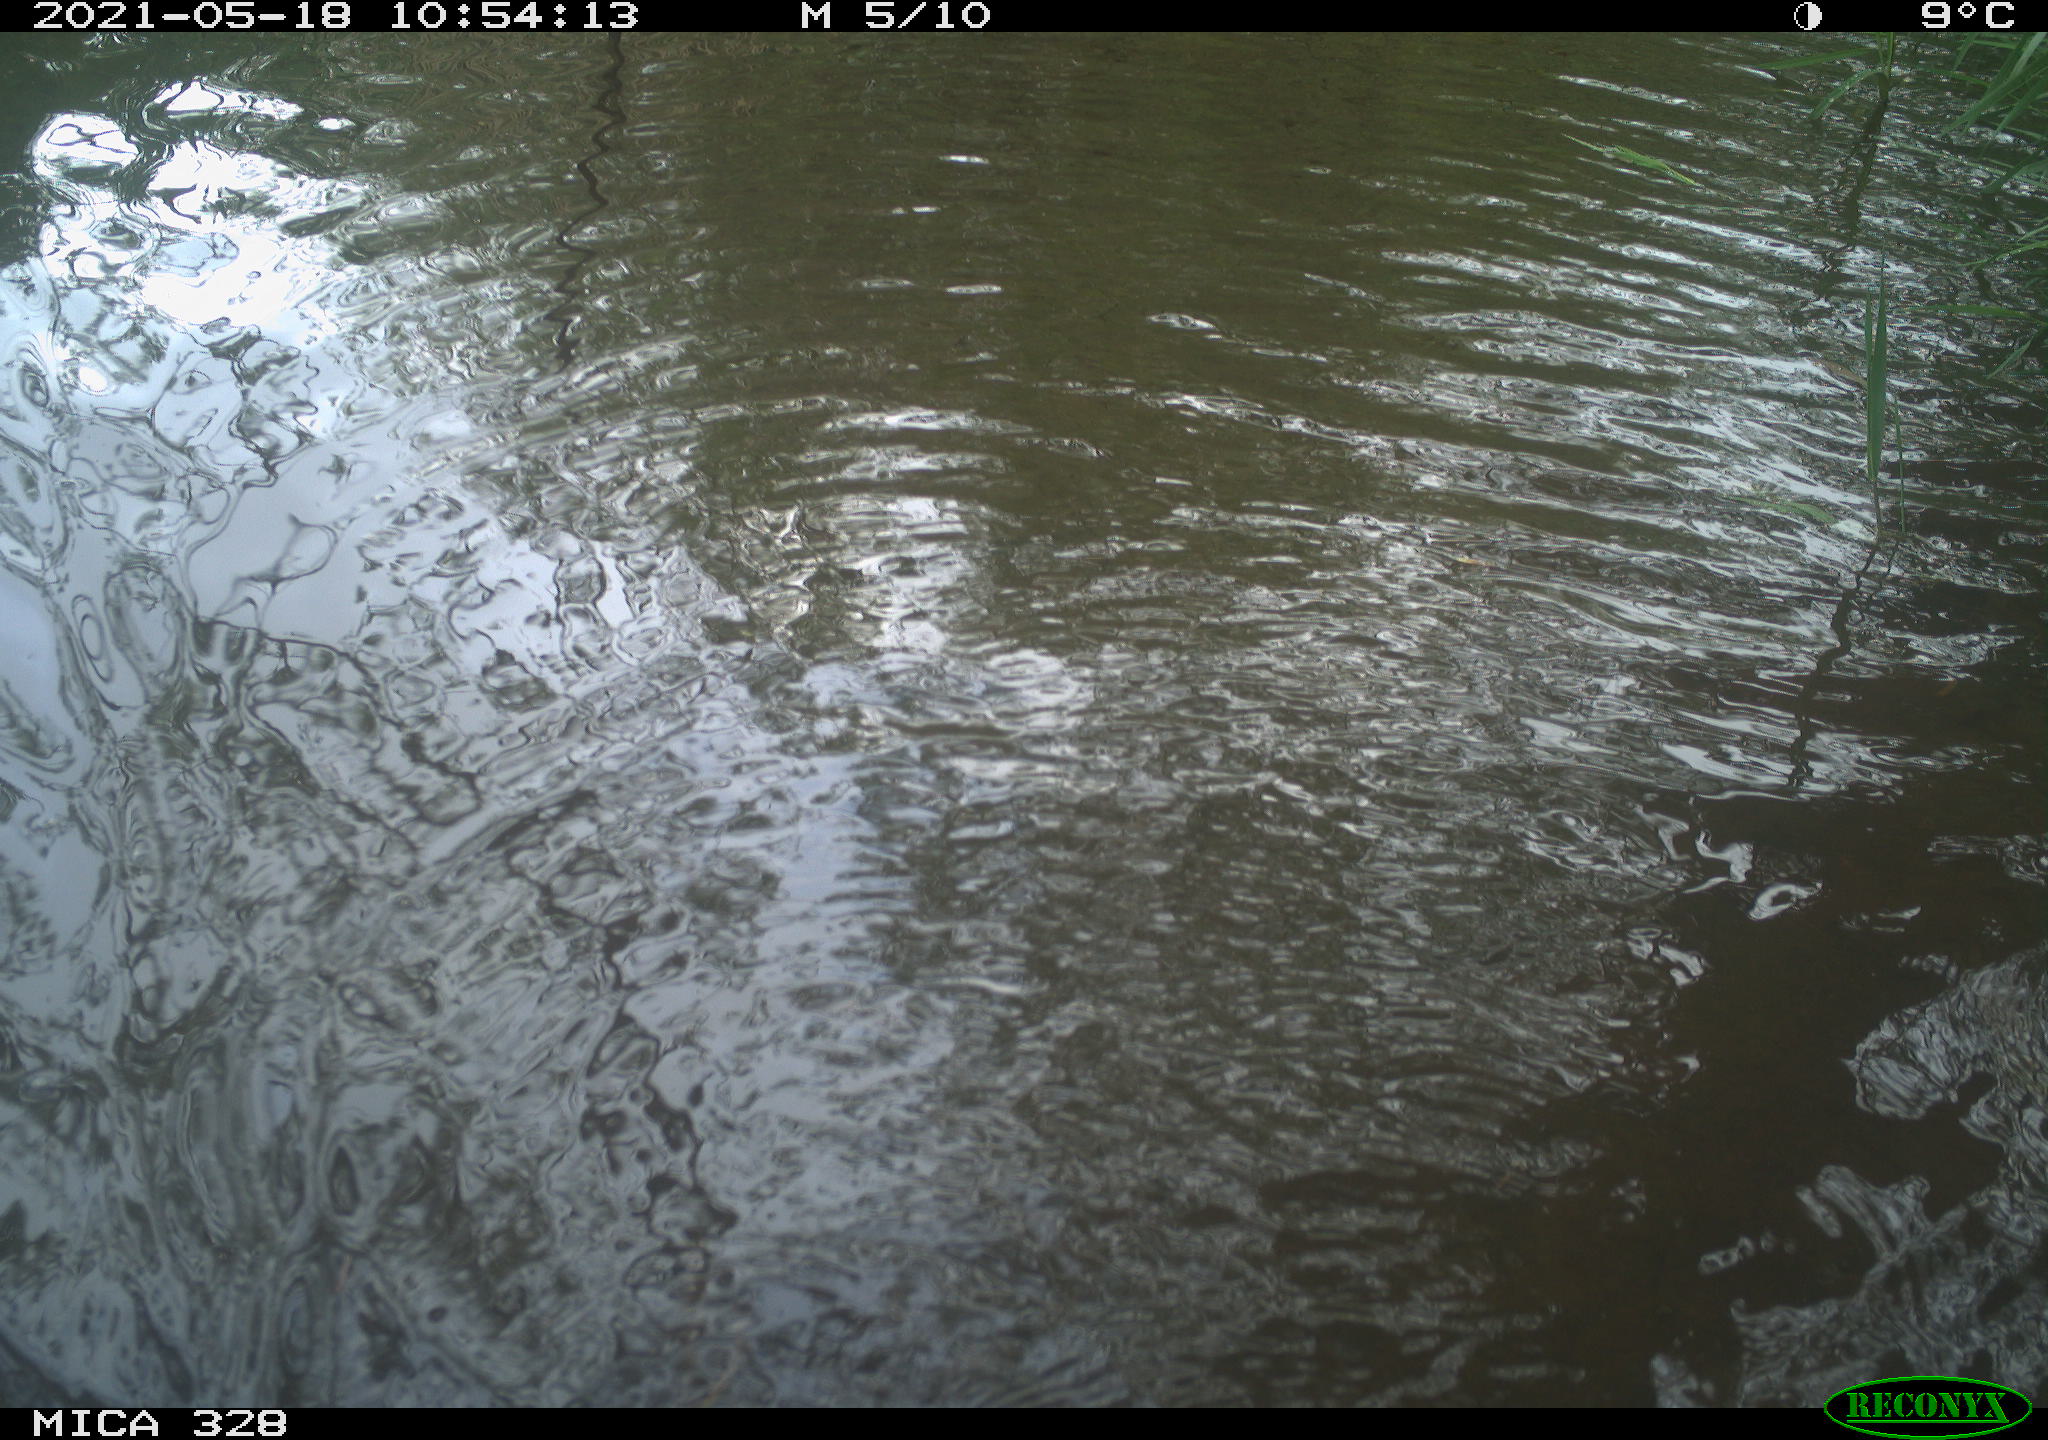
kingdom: Animalia
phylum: Chordata
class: Mammalia
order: Rodentia
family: Cricetidae
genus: Ondatra
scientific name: Ondatra zibethicus
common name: Muskrat
